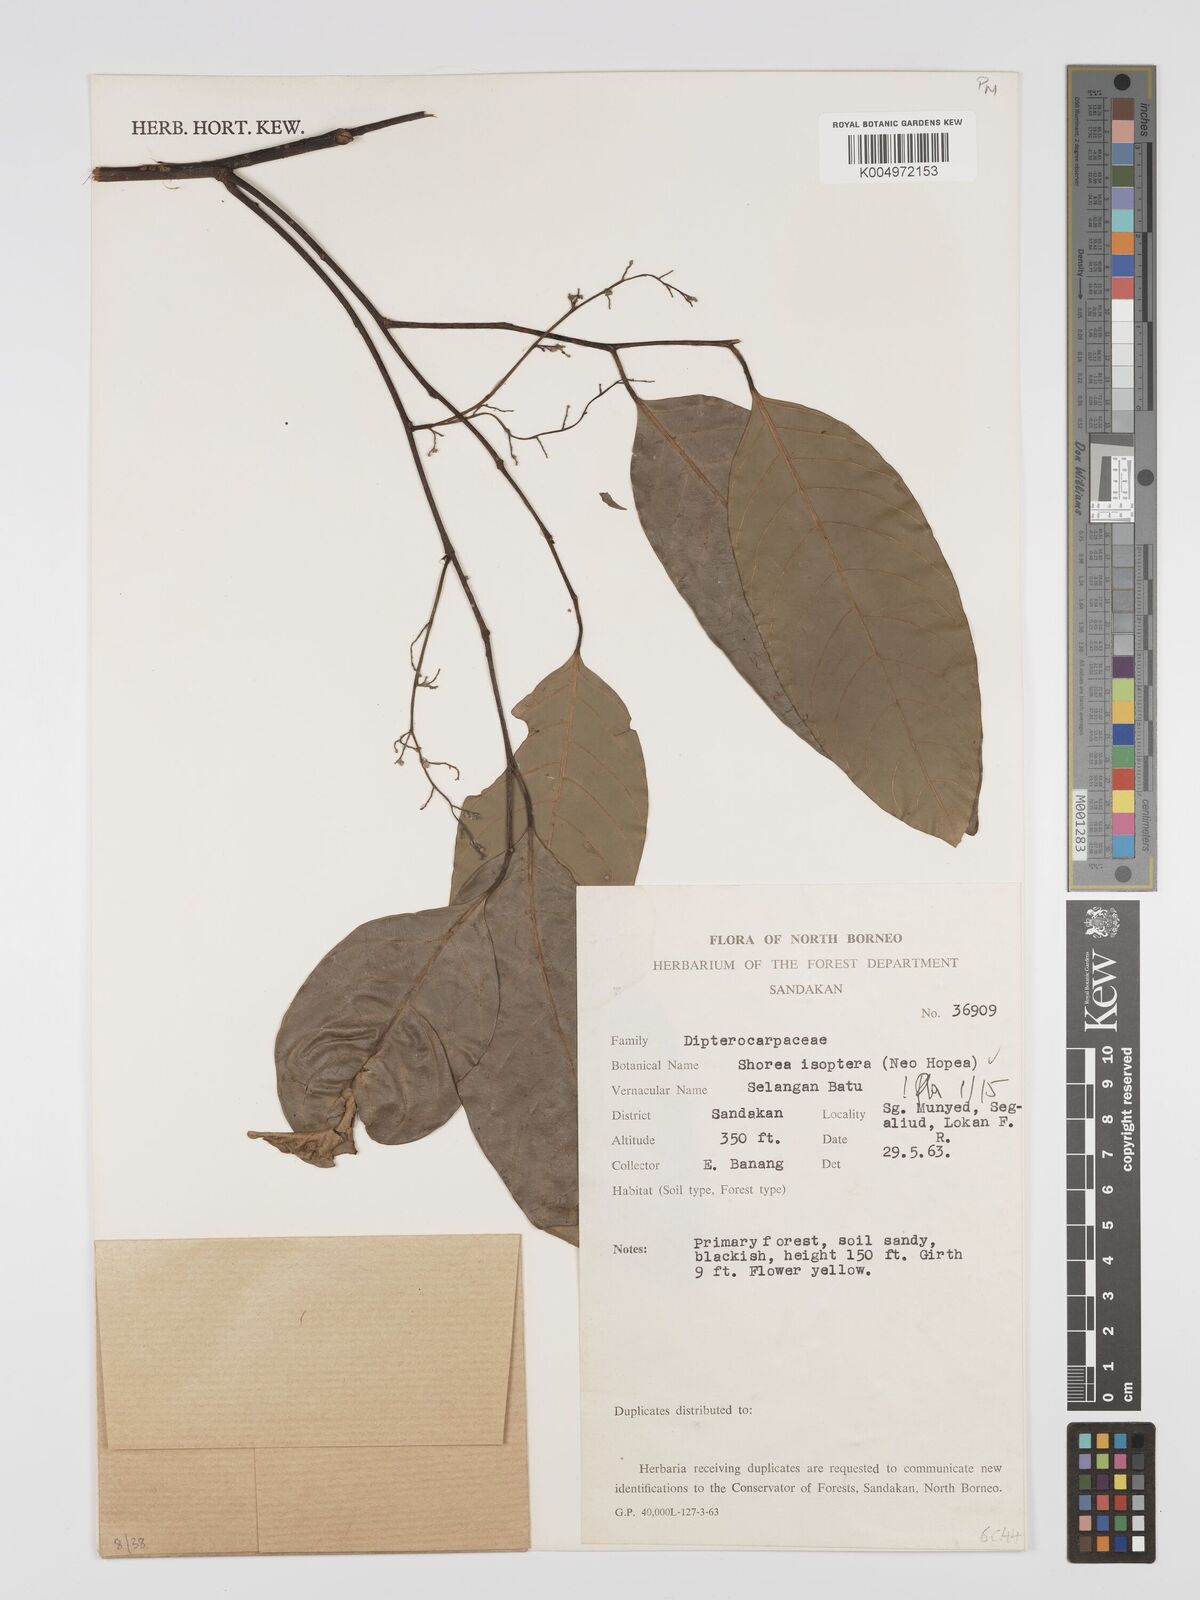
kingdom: Plantae
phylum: Tracheophyta
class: Magnoliopsida
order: Malvales
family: Dipterocarpaceae
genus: Neohopea
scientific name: Neohopea isoptera
